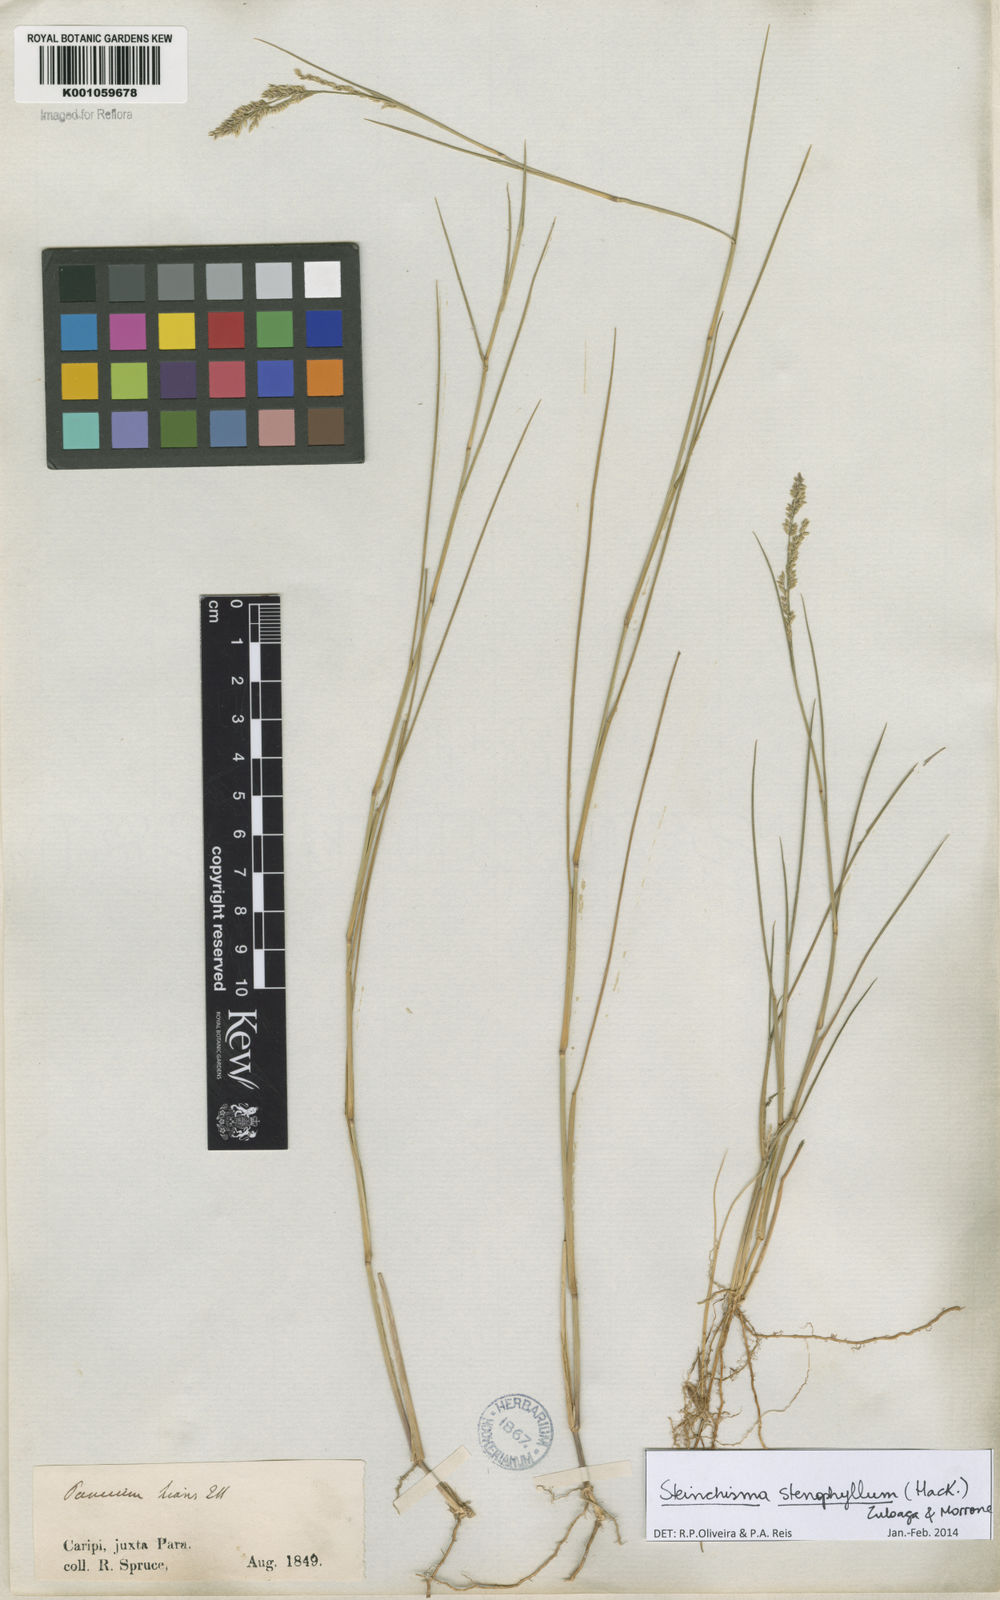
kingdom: Plantae
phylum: Tracheophyta
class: Liliopsida
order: Poales
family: Poaceae
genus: Steinchisma
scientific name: Steinchisma stenophyllum
